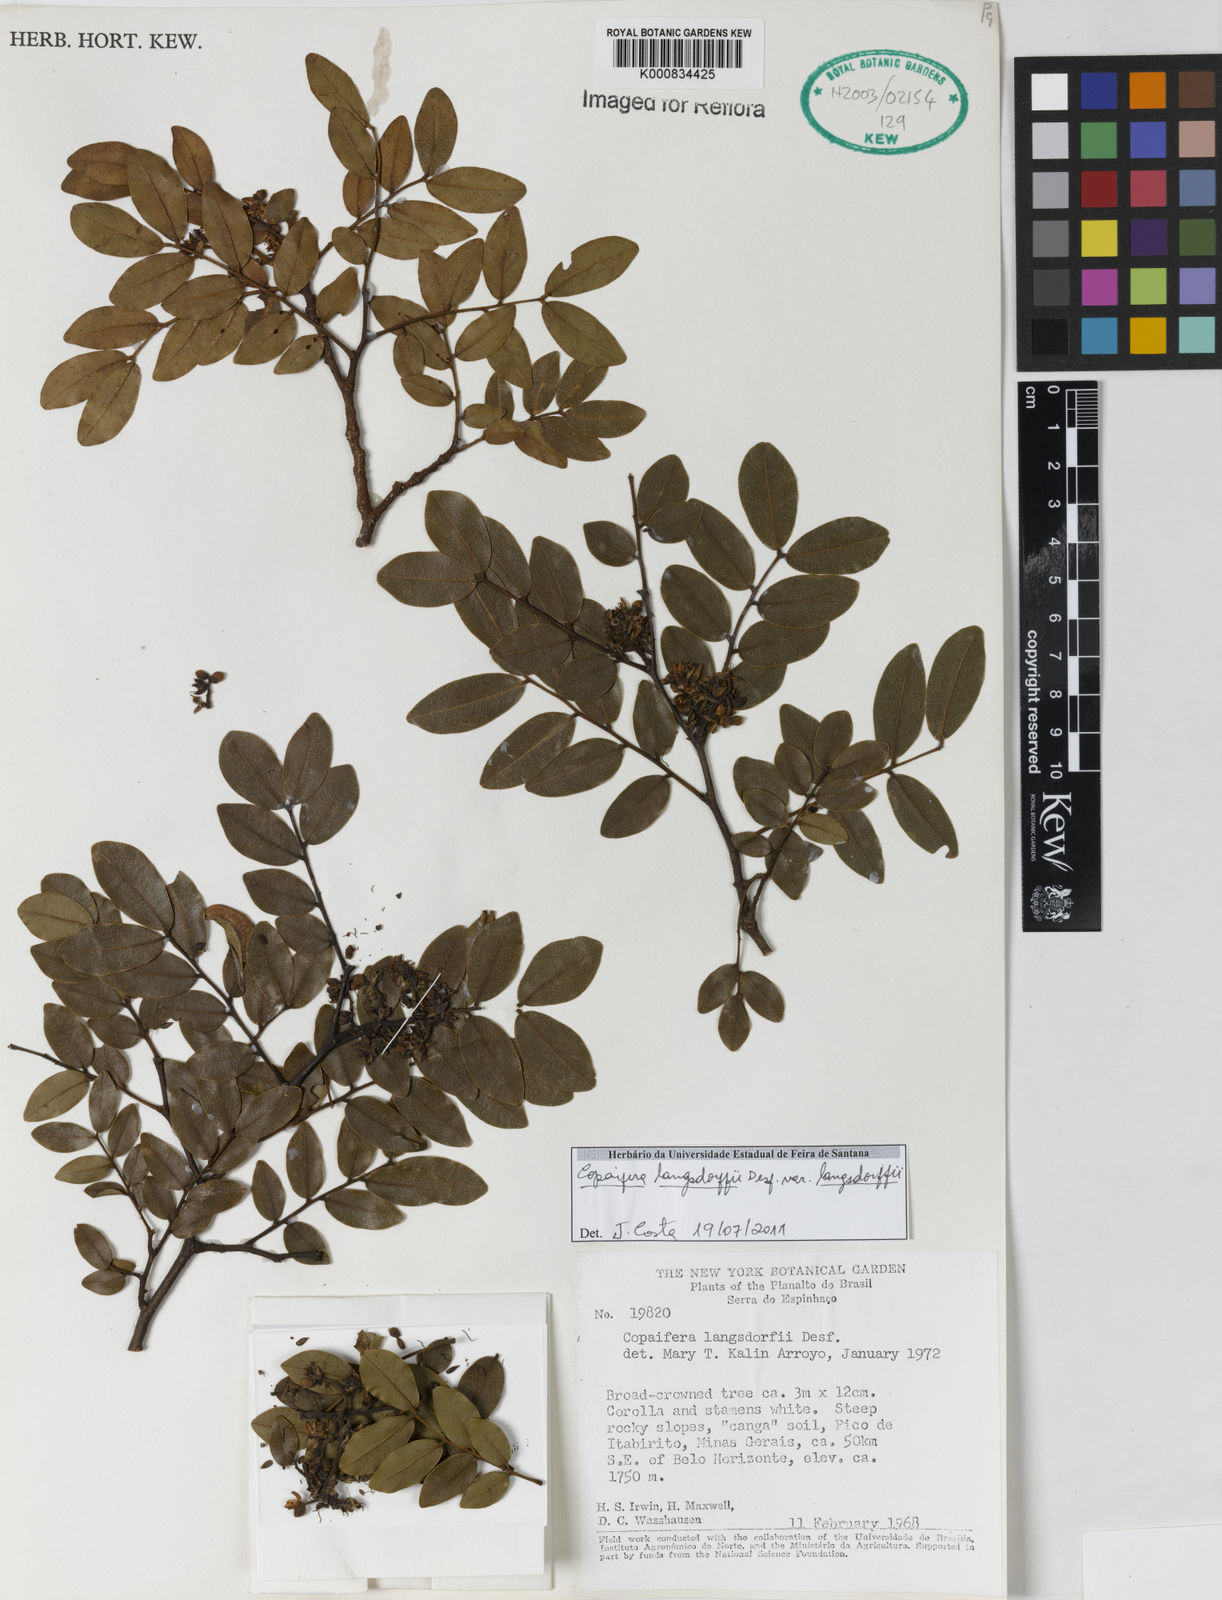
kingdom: Plantae
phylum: Tracheophyta
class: Magnoliopsida
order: Fabales
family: Fabaceae
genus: Copaifera
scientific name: Copaifera langsdorffii
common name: Brazilian diesel tree
